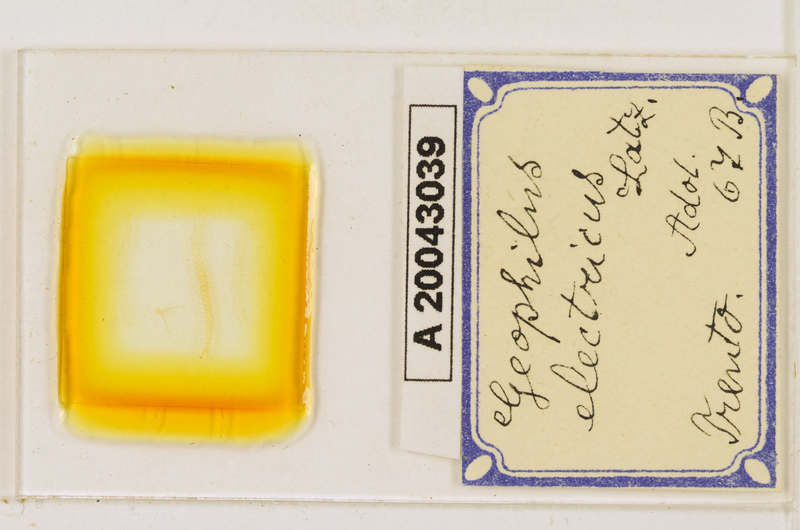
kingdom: Animalia
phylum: Arthropoda
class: Chilopoda
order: Geophilomorpha
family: Geophilidae
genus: Geophilus
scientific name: Geophilus electricus
